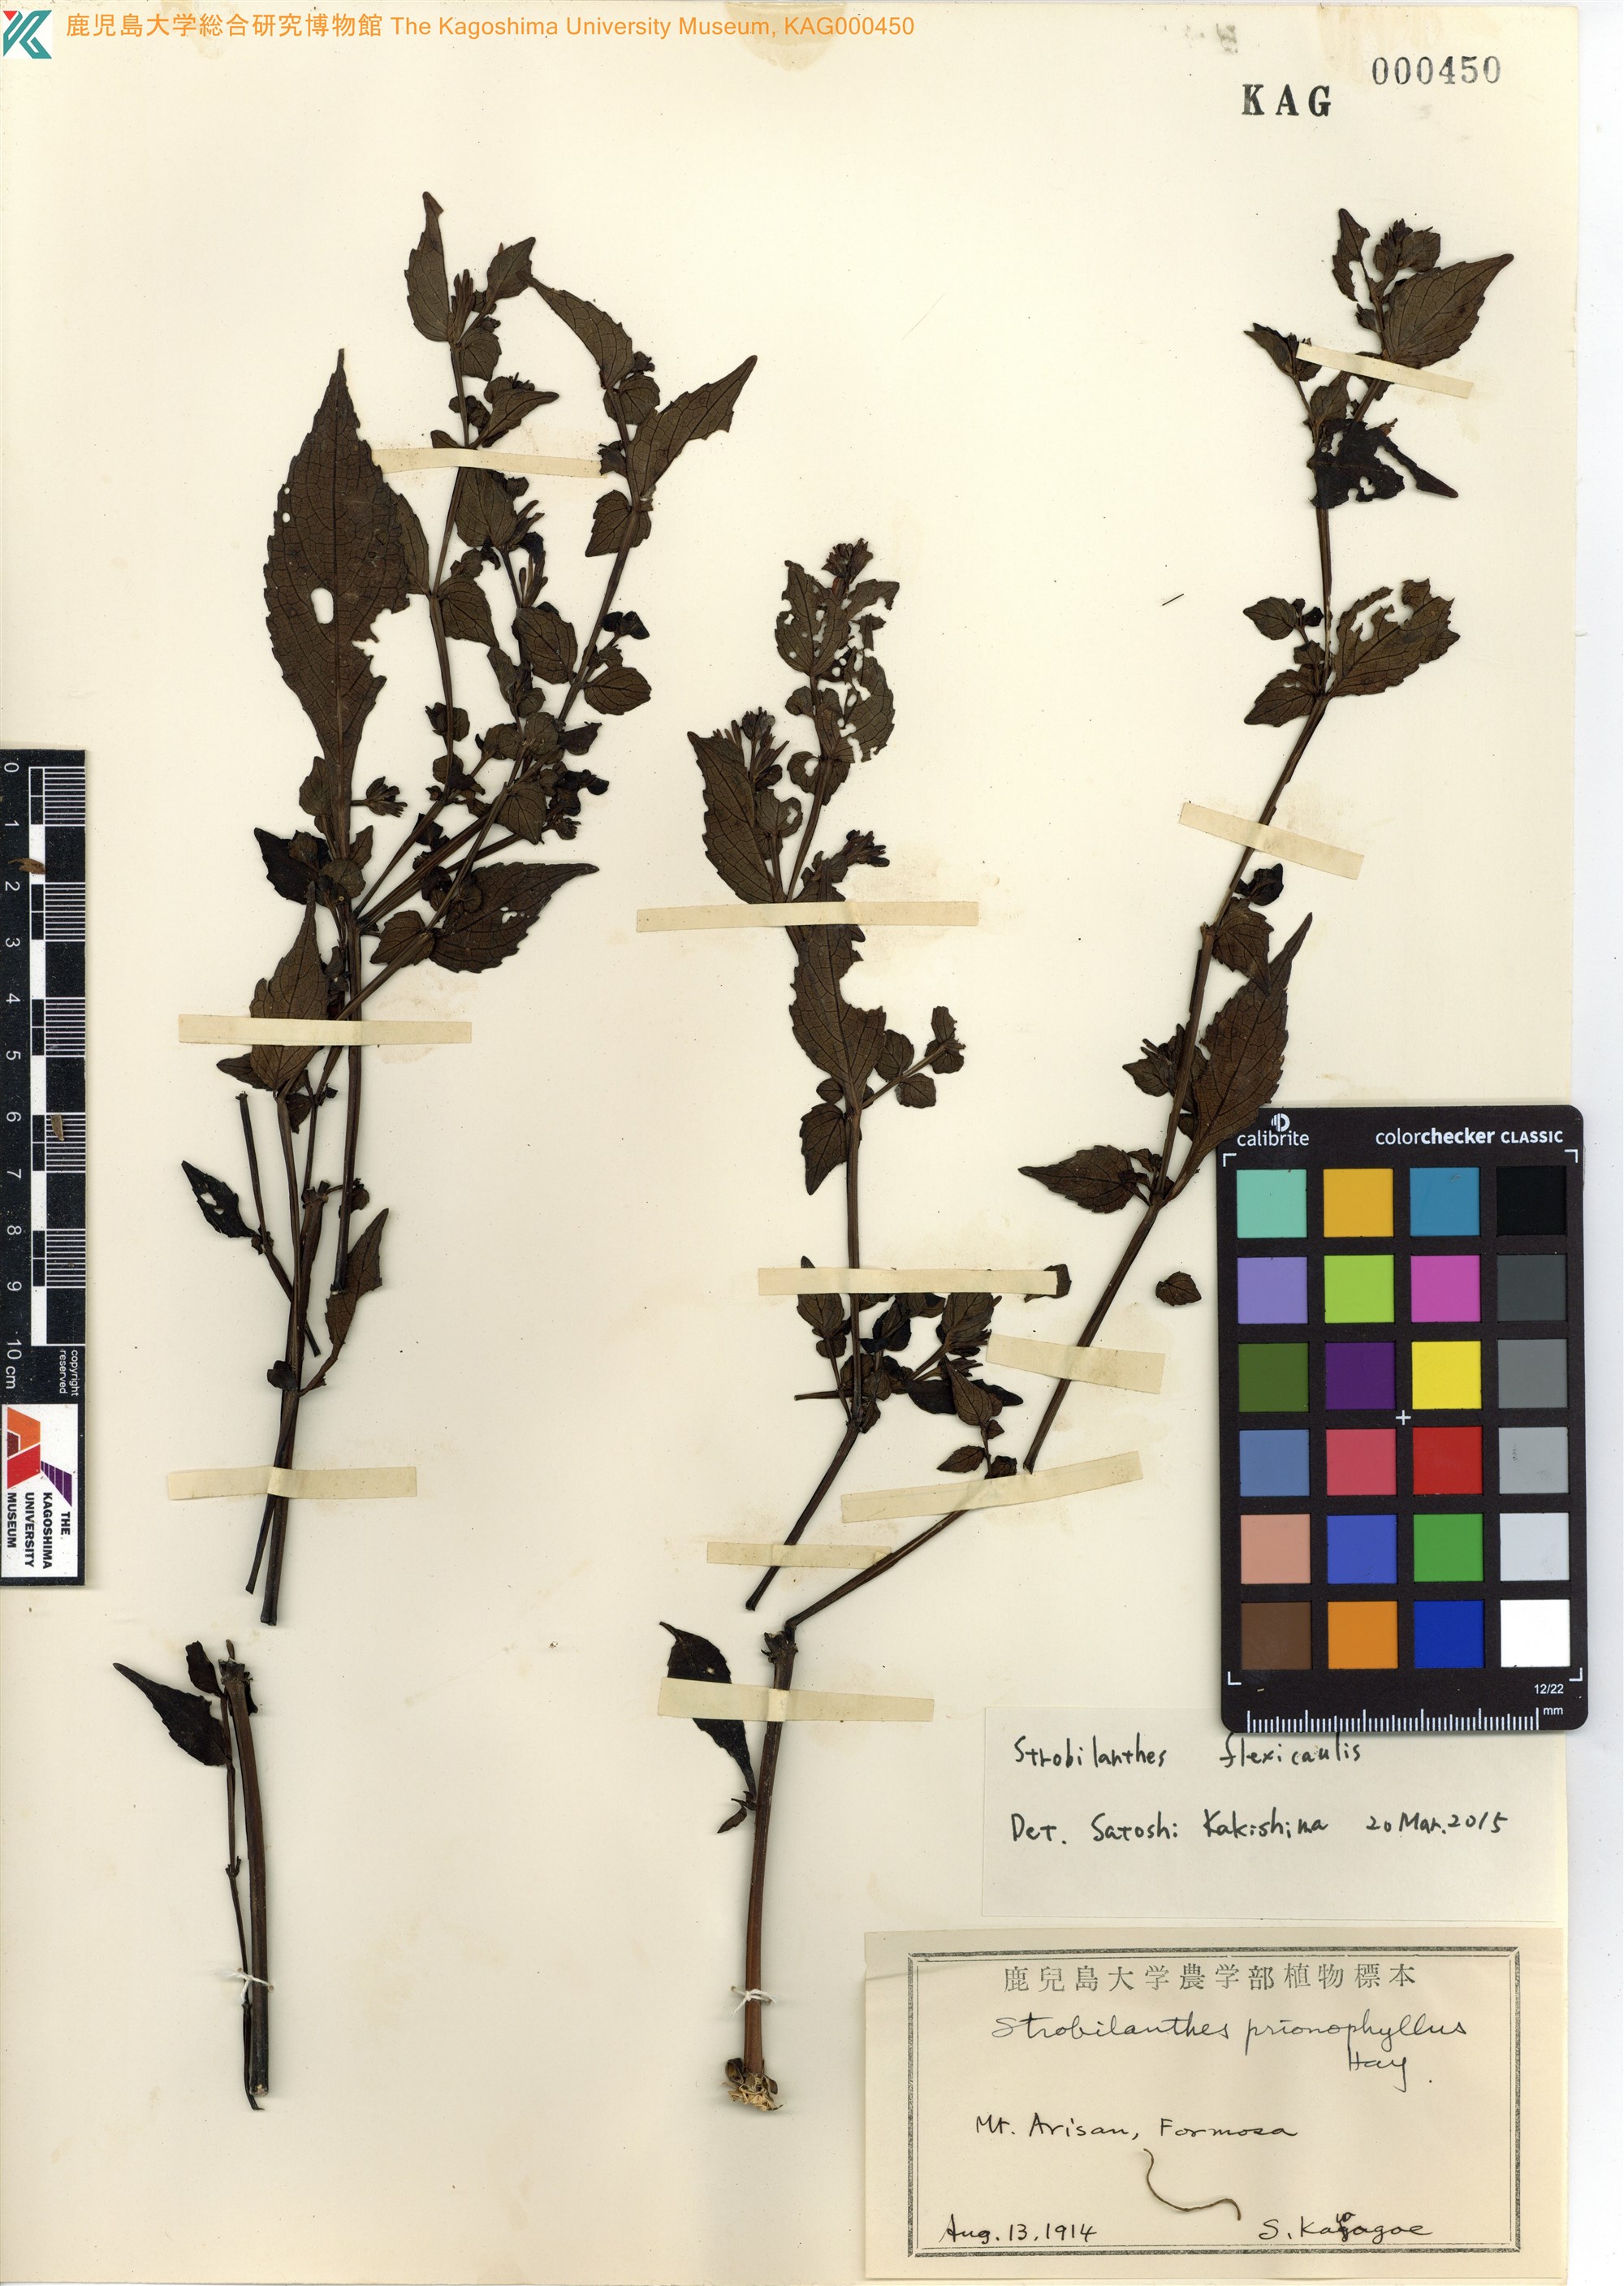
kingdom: Plantae
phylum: Tracheophyta
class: Magnoliopsida
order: Lamiales
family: Acanthaceae
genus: Strobilanthes
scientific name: Strobilanthes flexicaulis
